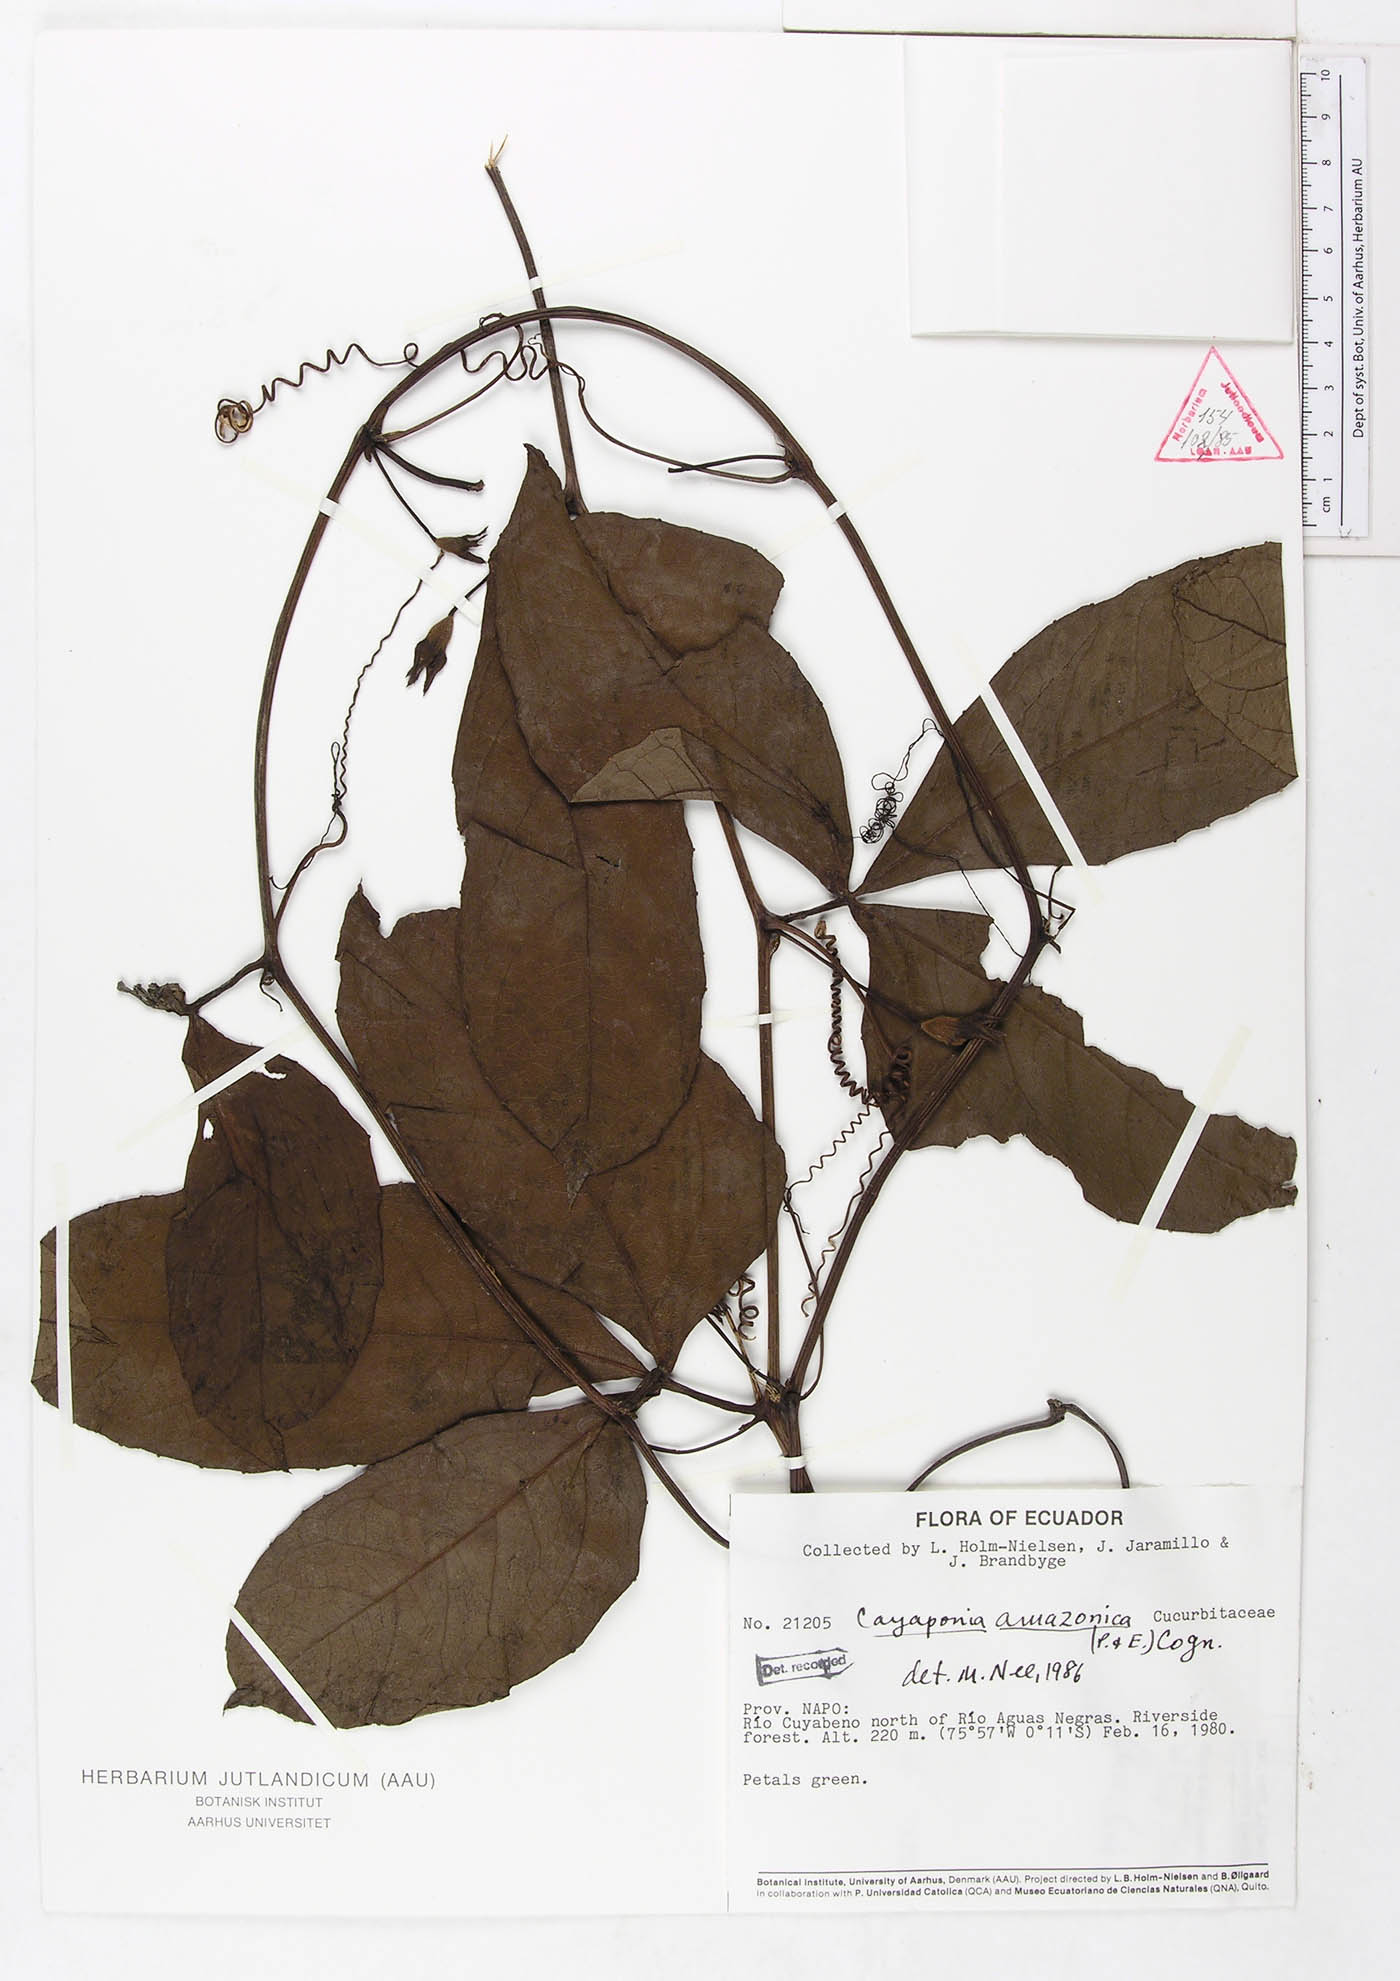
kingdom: Plantae
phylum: Tracheophyta
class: Magnoliopsida
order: Cucurbitales
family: Cucurbitaceae
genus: Cayaponia
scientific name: Cayaponia amazonica
